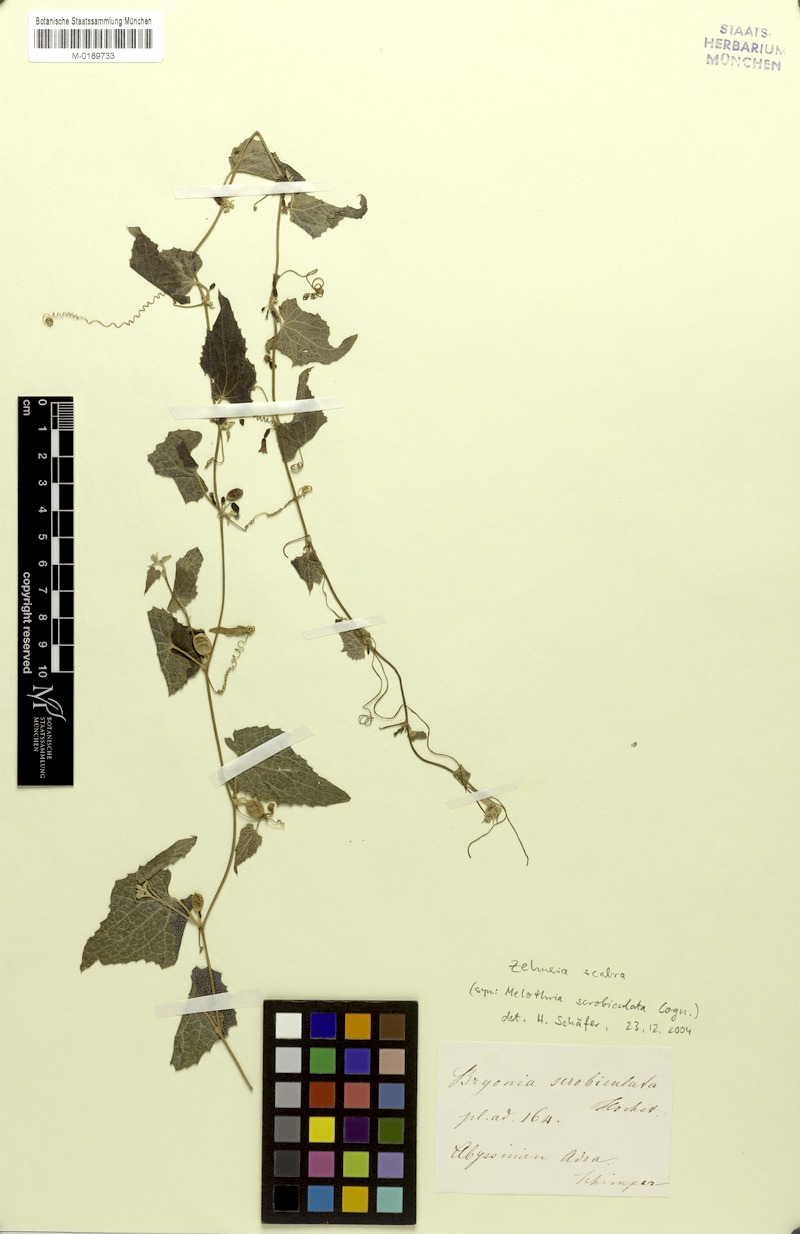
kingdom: Plantae
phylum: Tracheophyta
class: Magnoliopsida
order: Cucurbitales
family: Cucurbitaceae
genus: Zehneria
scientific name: Zehneria scabra
